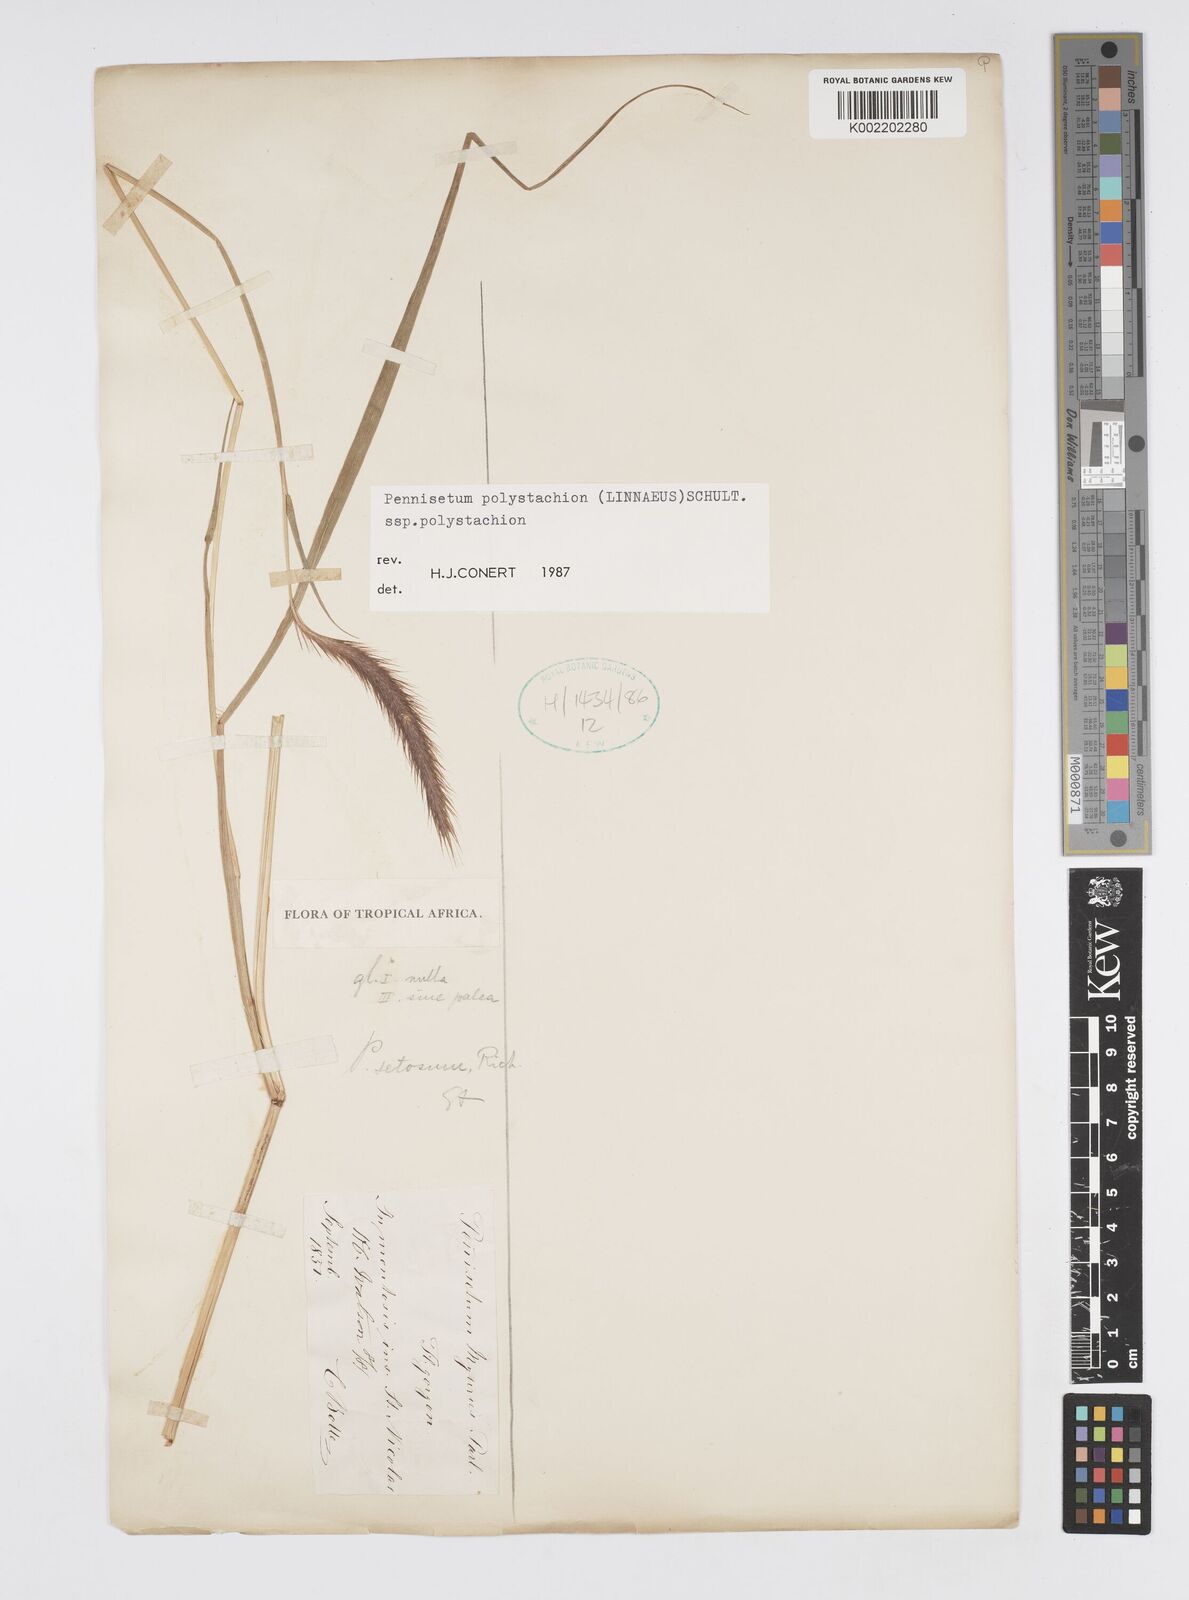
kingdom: Plantae
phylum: Tracheophyta
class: Liliopsida
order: Poales
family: Poaceae
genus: Setaria
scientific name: Setaria parviflora
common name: Knotroot bristle-grass
